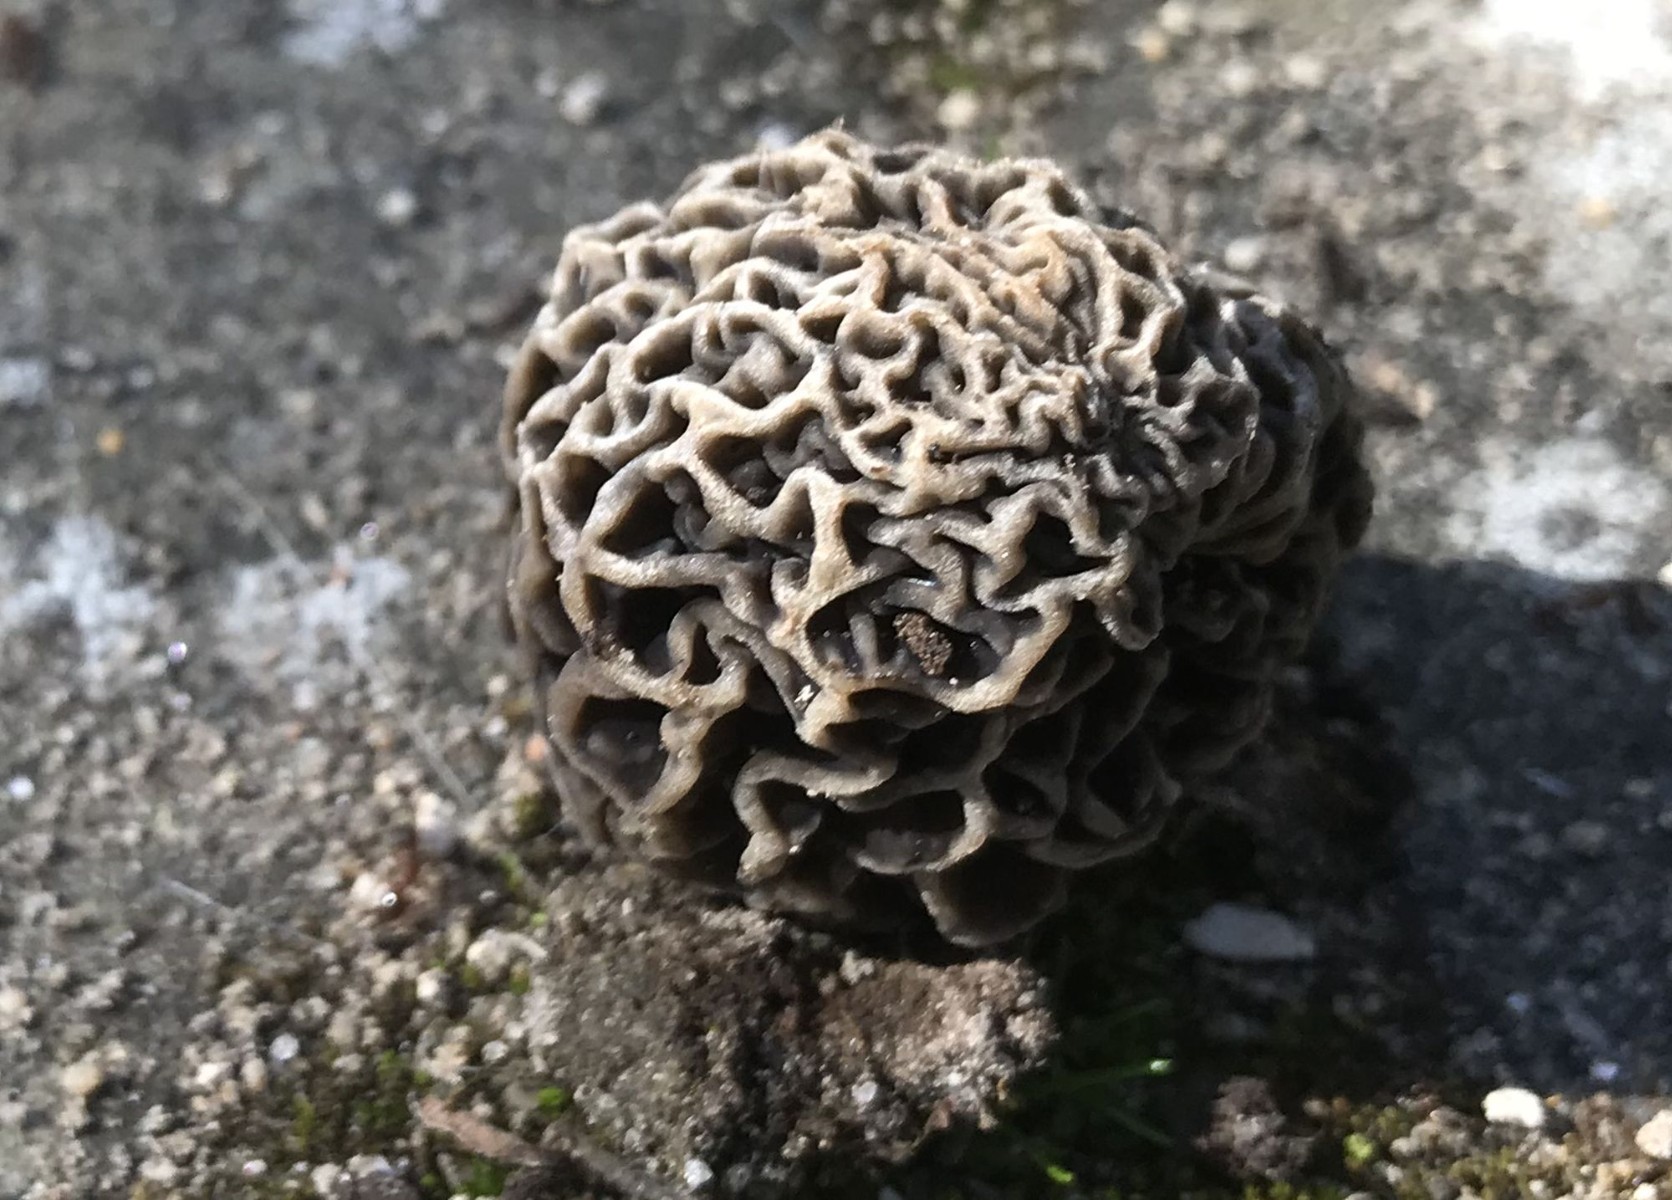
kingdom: Fungi
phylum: Ascomycota
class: Pezizomycetes
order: Pezizales
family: Morchellaceae
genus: Morchella
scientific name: Morchella esculenta
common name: almindelig morkel
